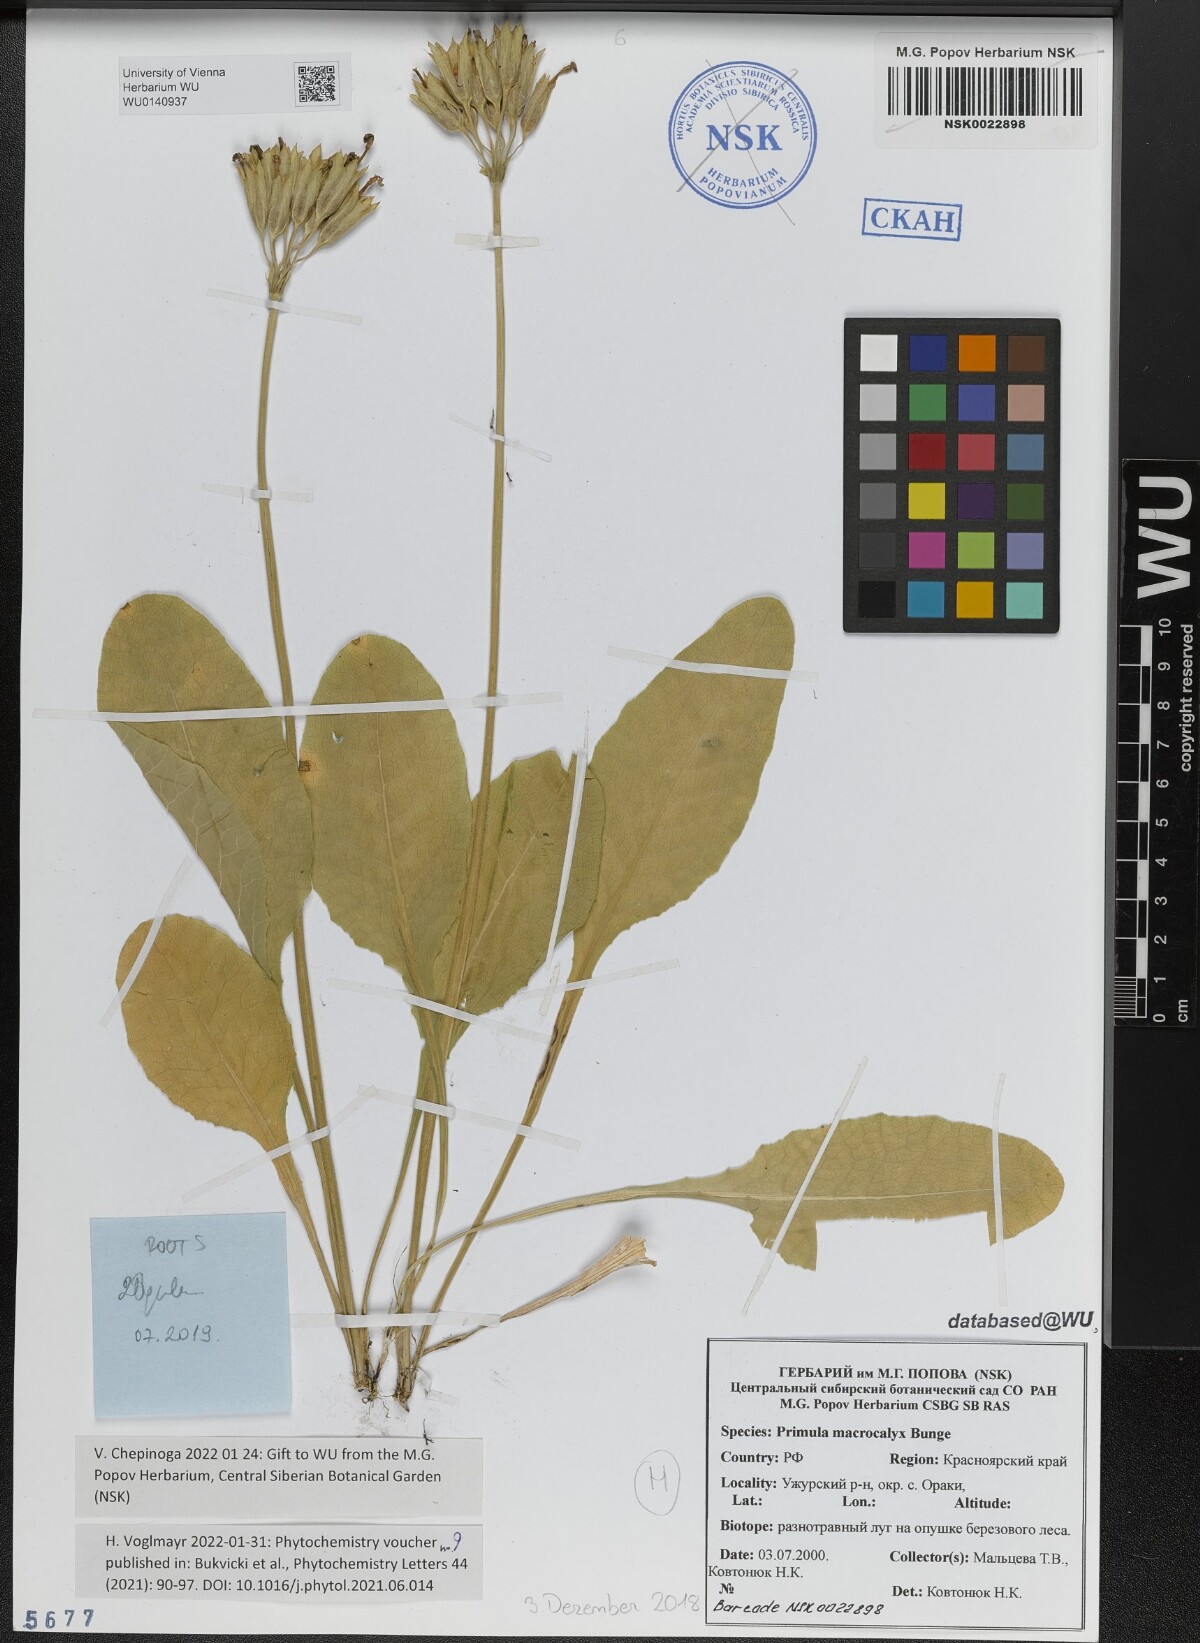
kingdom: Plantae
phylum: Tracheophyta
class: Magnoliopsida
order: Ericales
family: Primulaceae
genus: Primula
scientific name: Primula veris
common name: Cowslip
